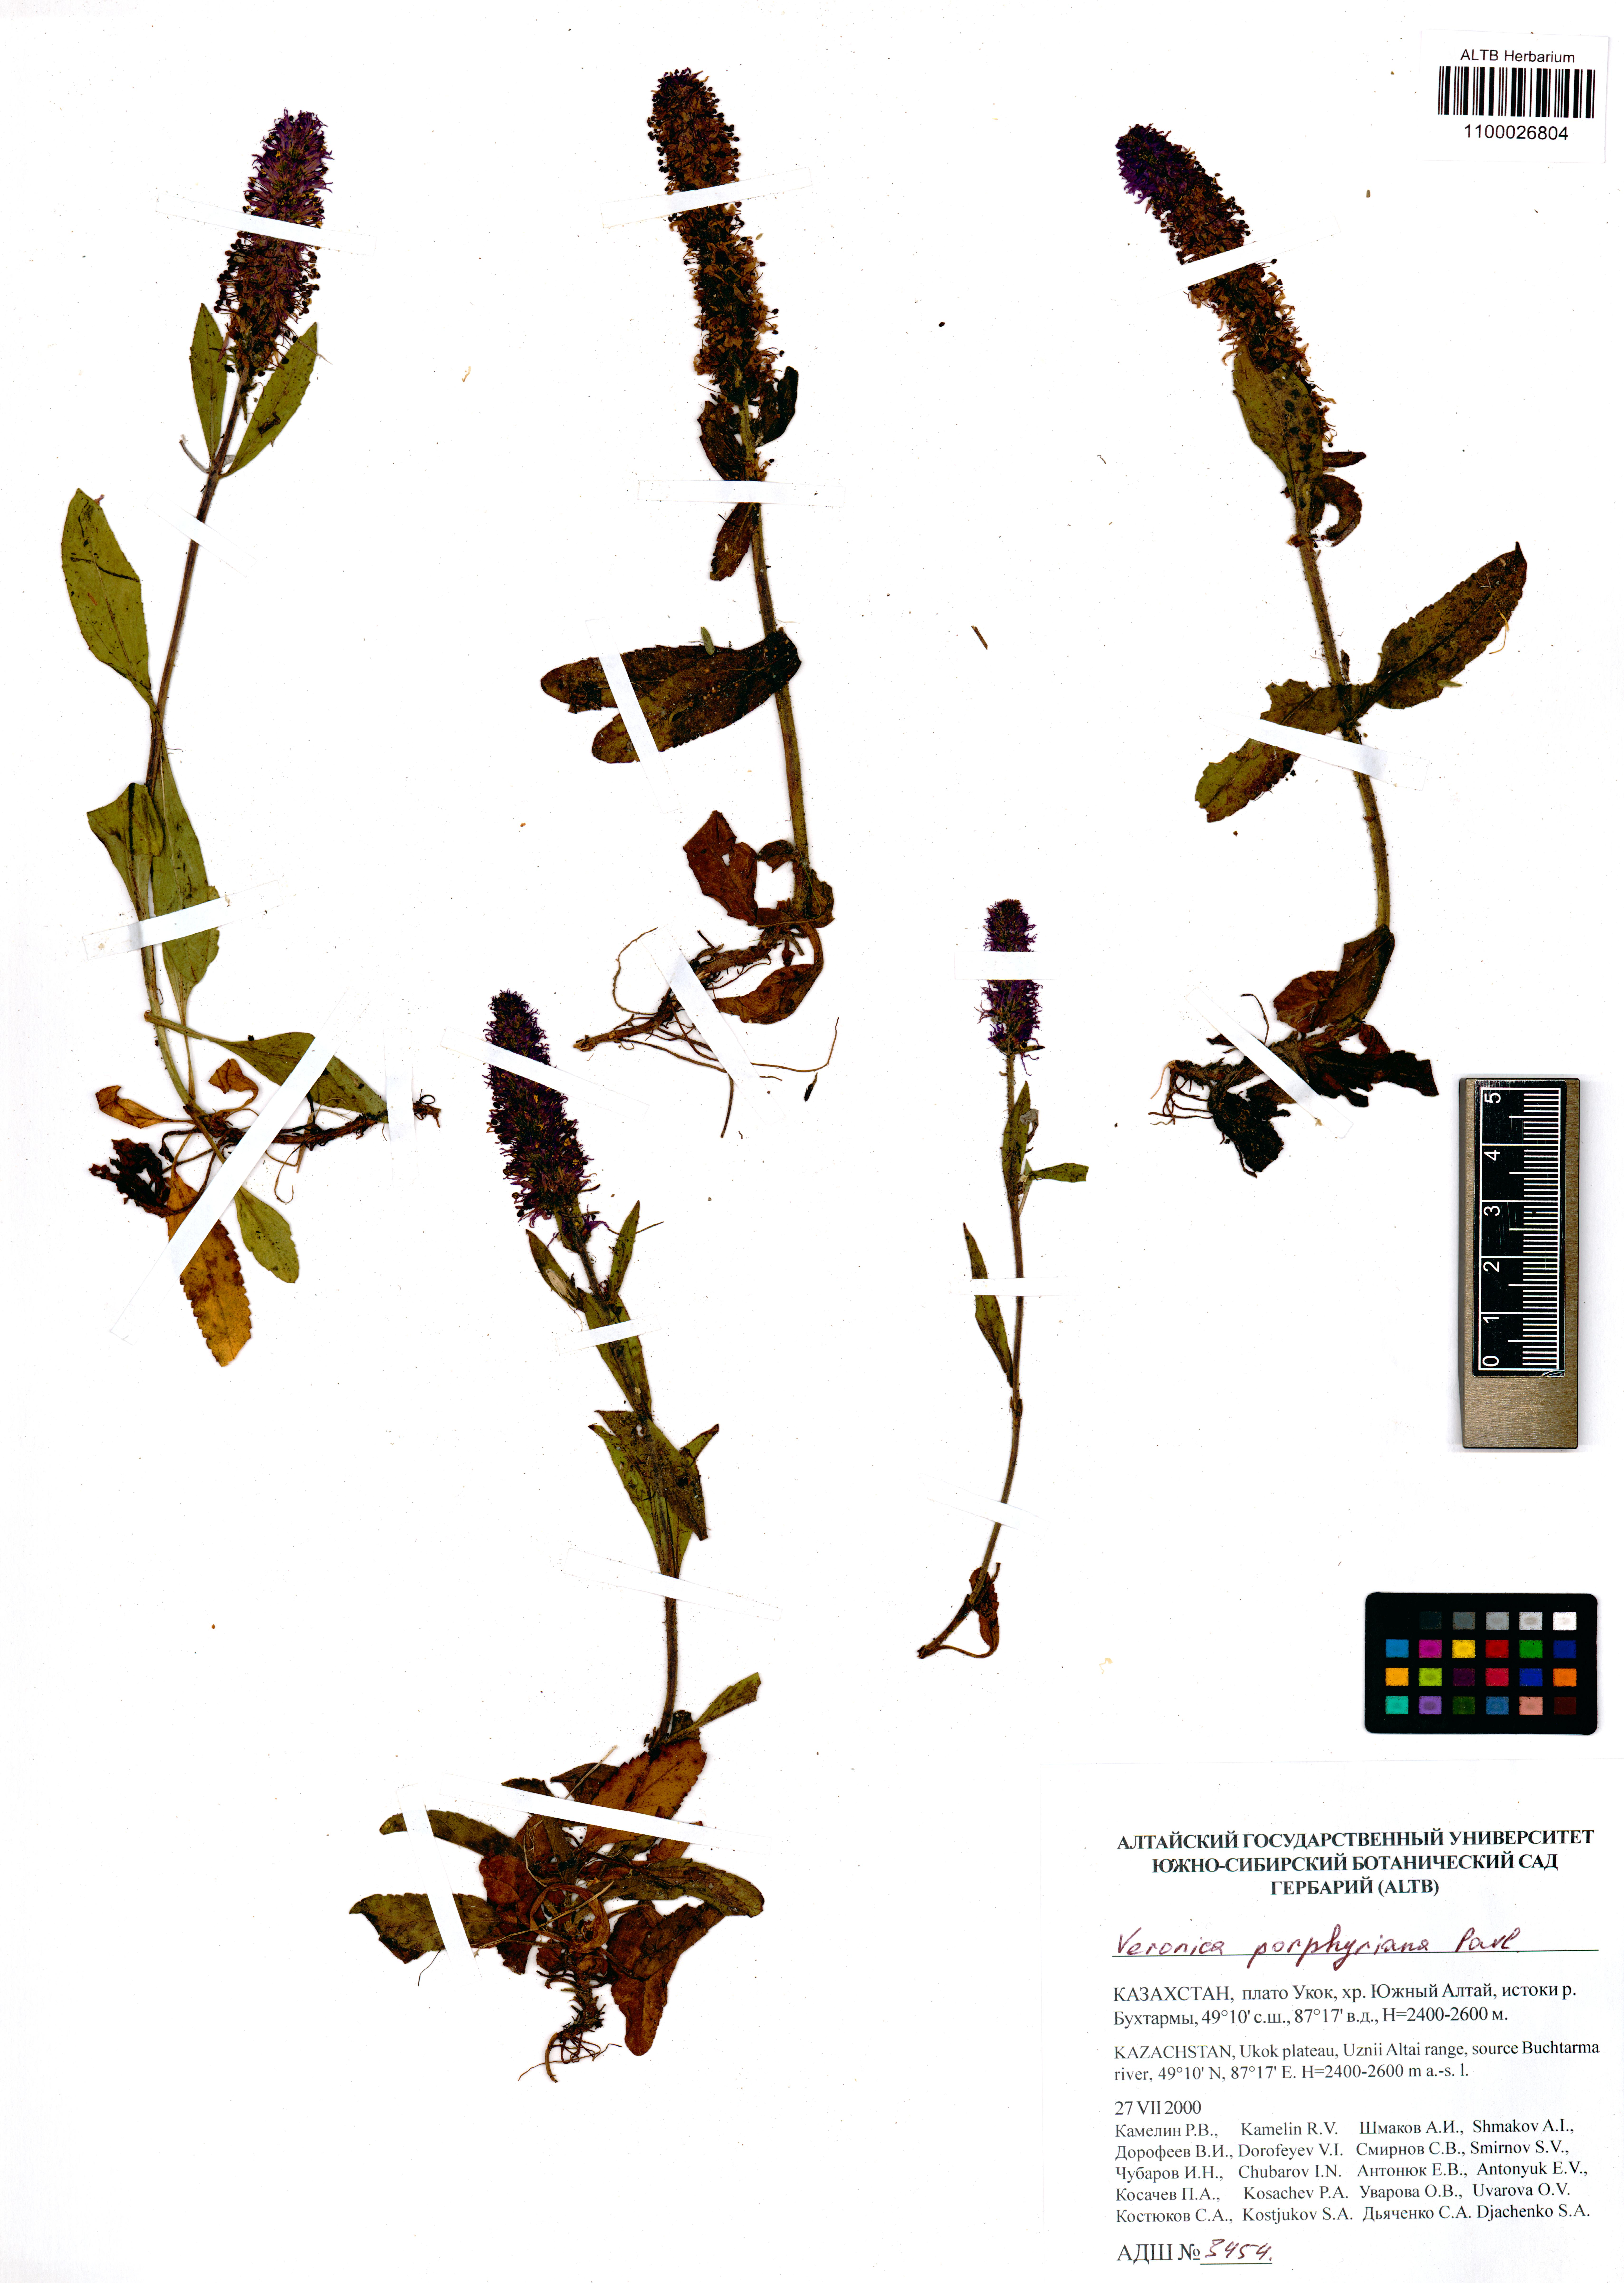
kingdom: Plantae
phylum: Tracheophyta
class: Magnoliopsida
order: Lamiales
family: Plantaginaceae
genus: Veronica
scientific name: Veronica porphyriana
